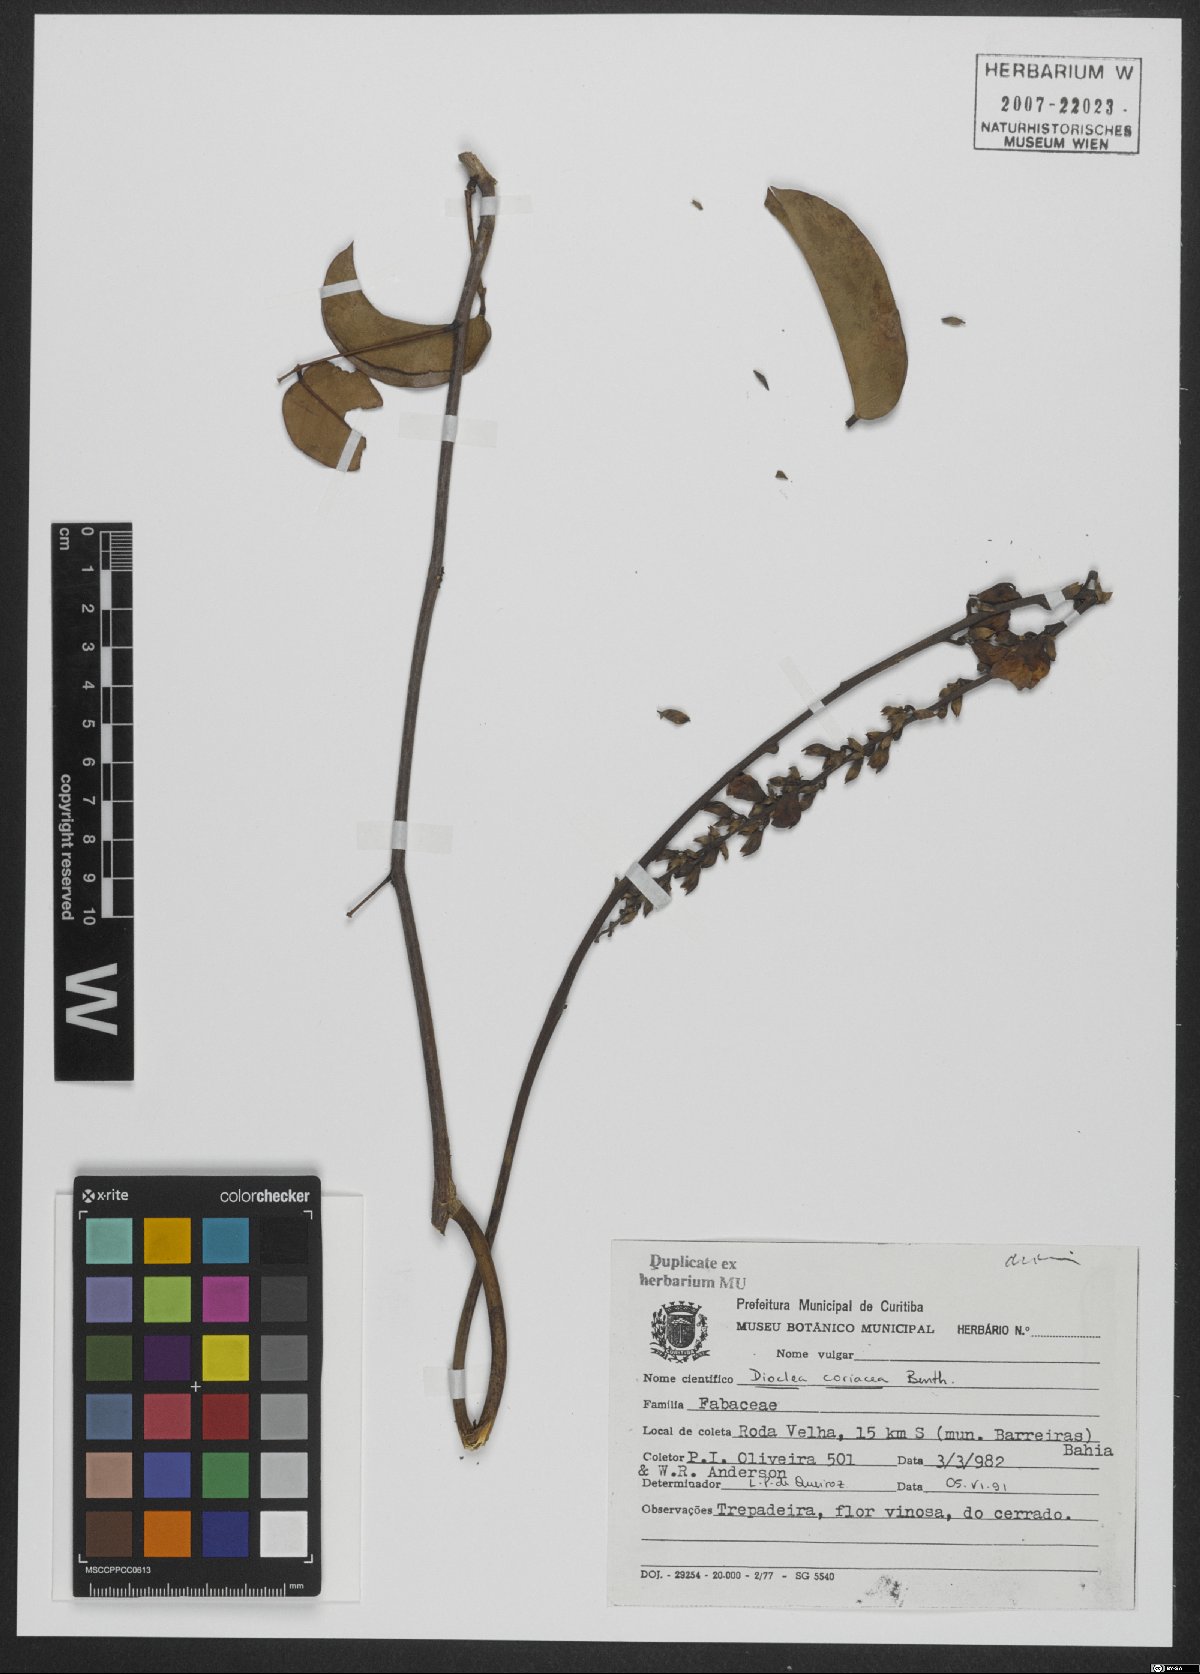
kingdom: Plantae
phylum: Tracheophyta
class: Magnoliopsida
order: Fabales
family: Fabaceae
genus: Macropsychanthus
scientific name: Macropsychanthus coriaceus
